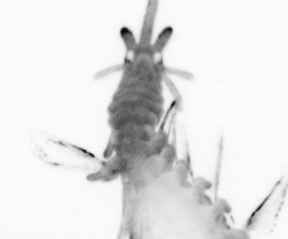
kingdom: Animalia
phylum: Annelida
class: Polychaeta
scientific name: Polychaeta
